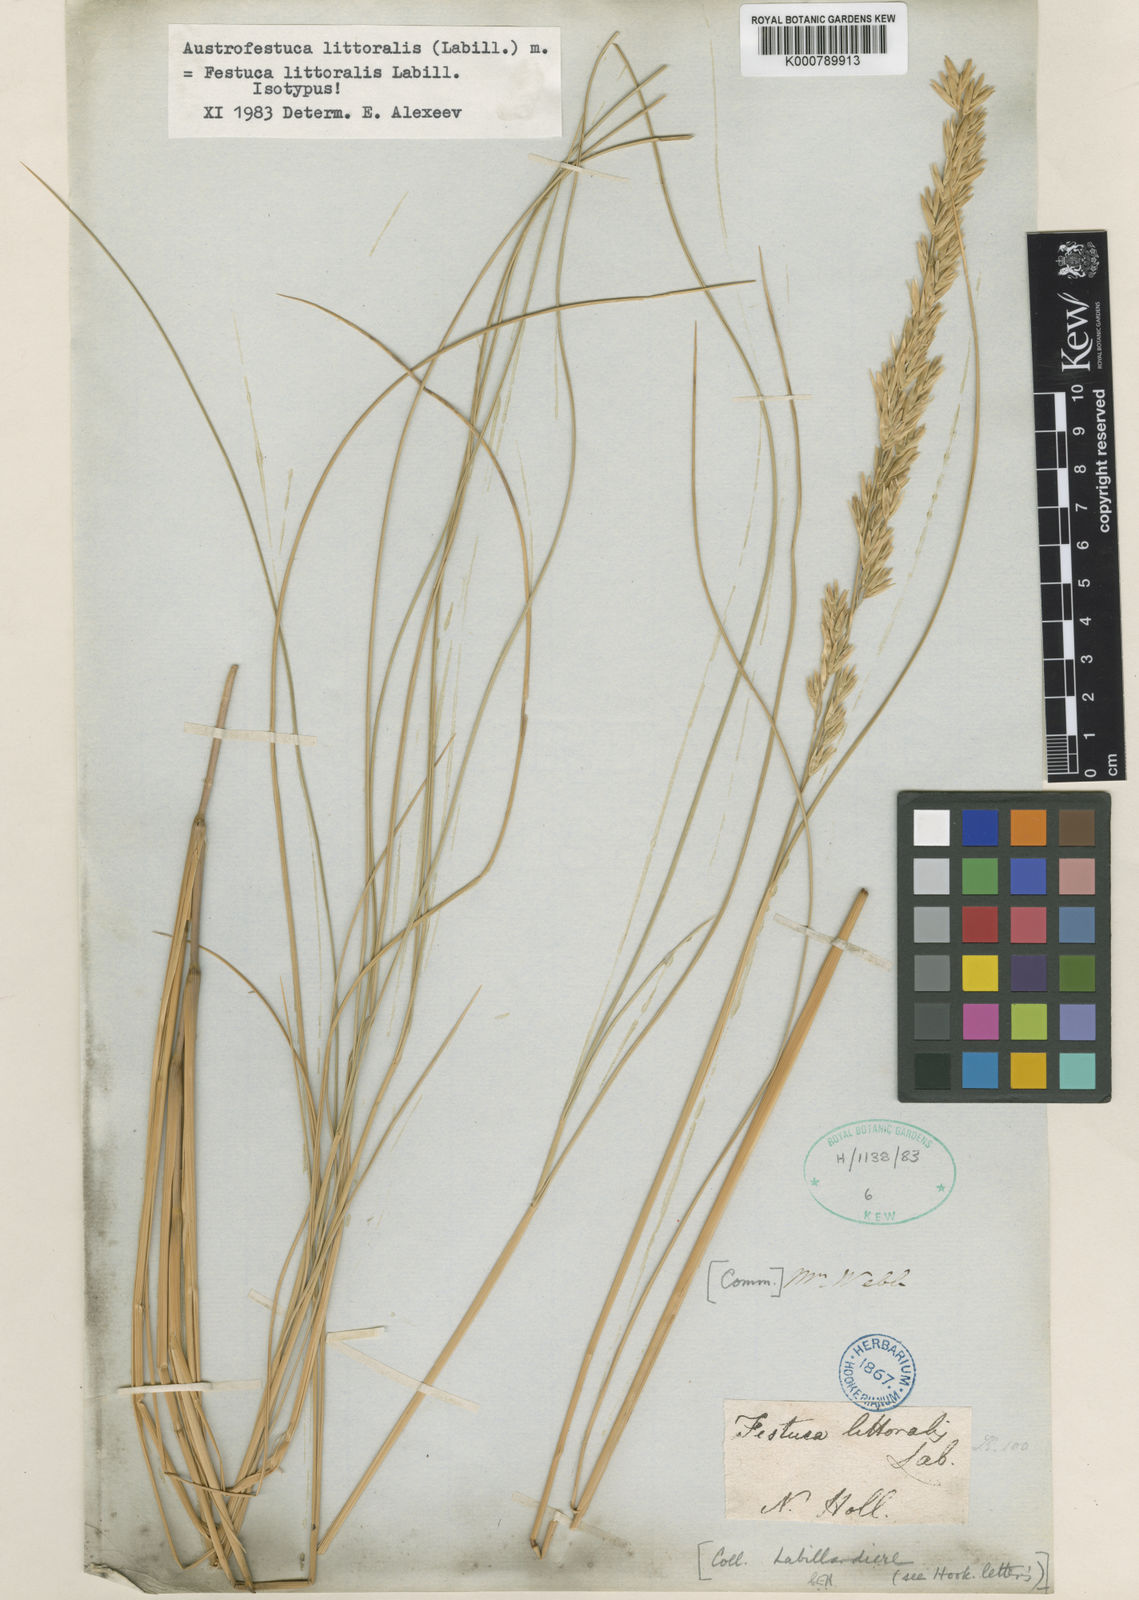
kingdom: Plantae
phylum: Tracheophyta
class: Liliopsida
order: Poales
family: Poaceae
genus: Poa
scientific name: Poa triodioides
